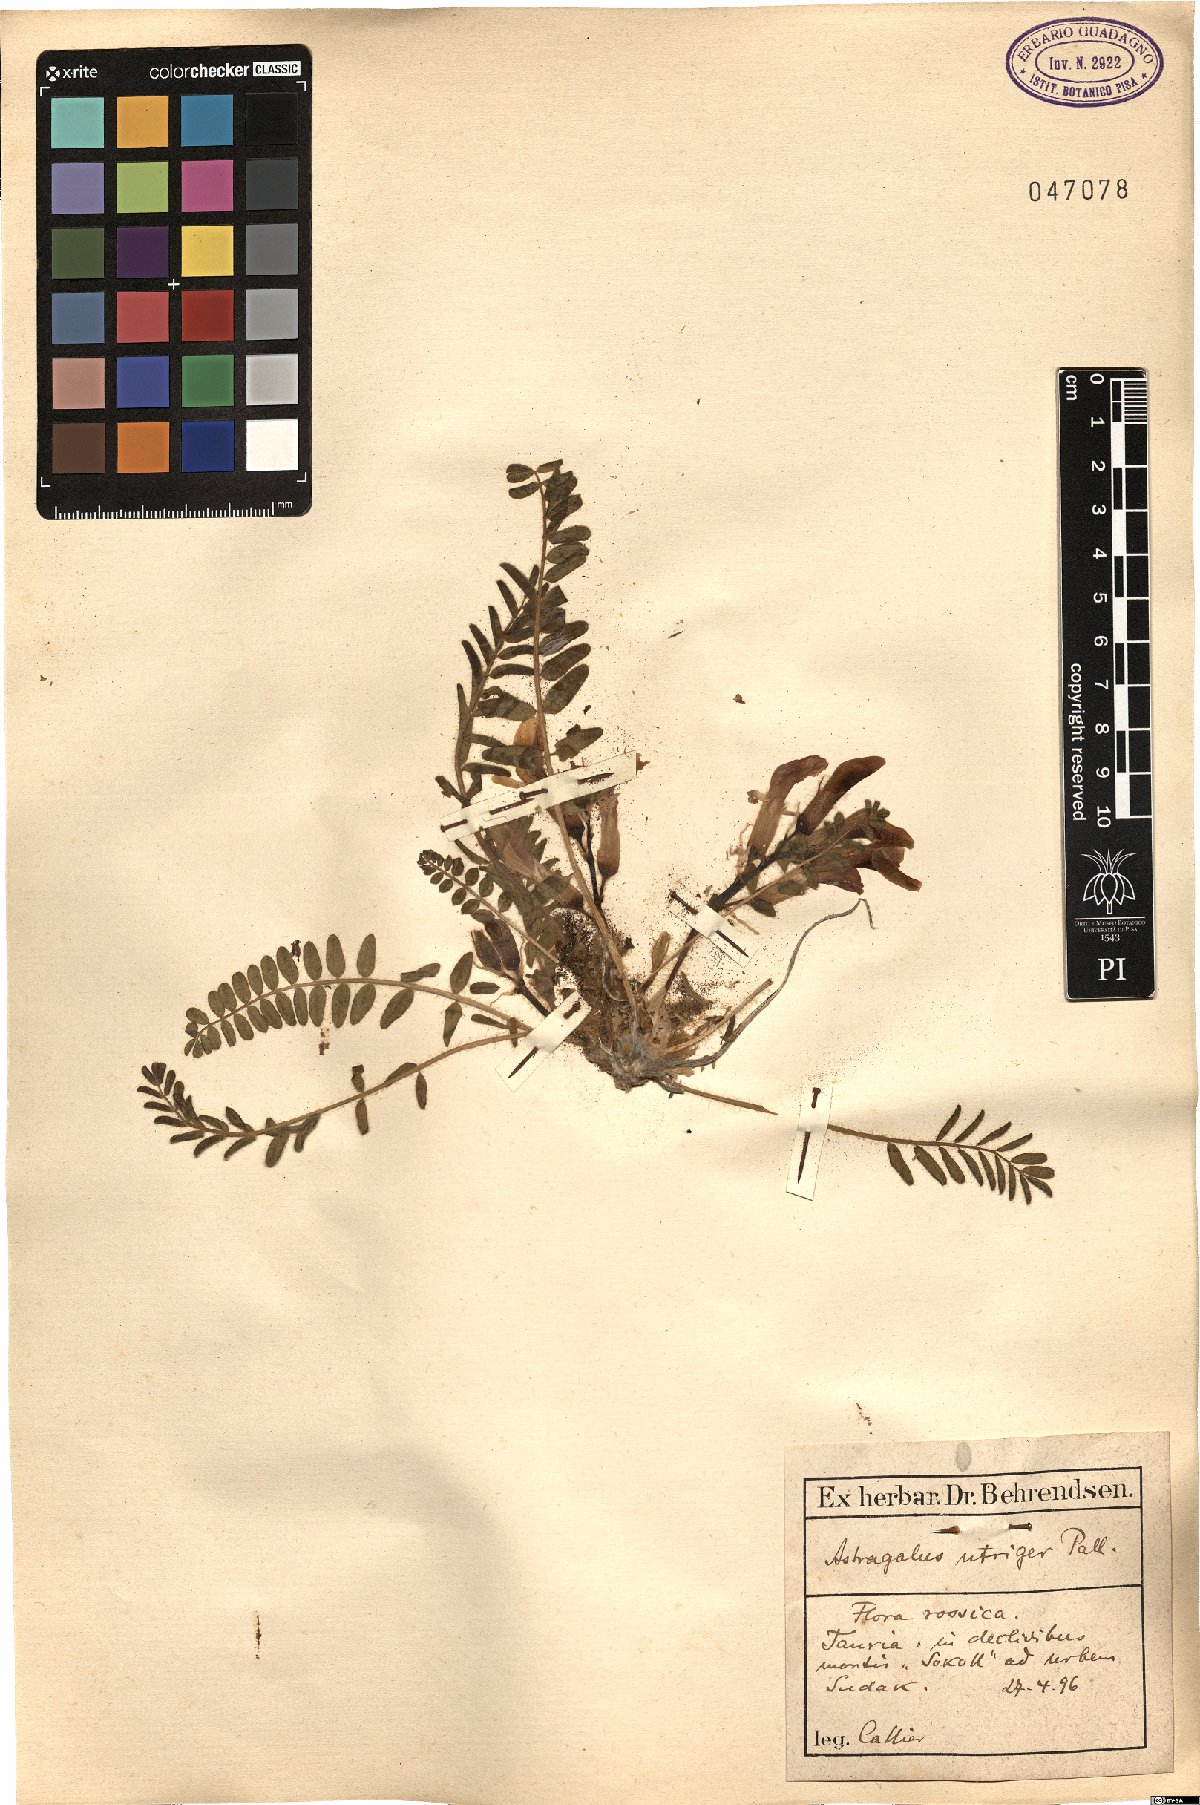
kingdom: Plantae
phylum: Tracheophyta
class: Magnoliopsida
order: Fabales
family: Fabaceae
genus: Astragalus
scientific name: Astragalus utriger
